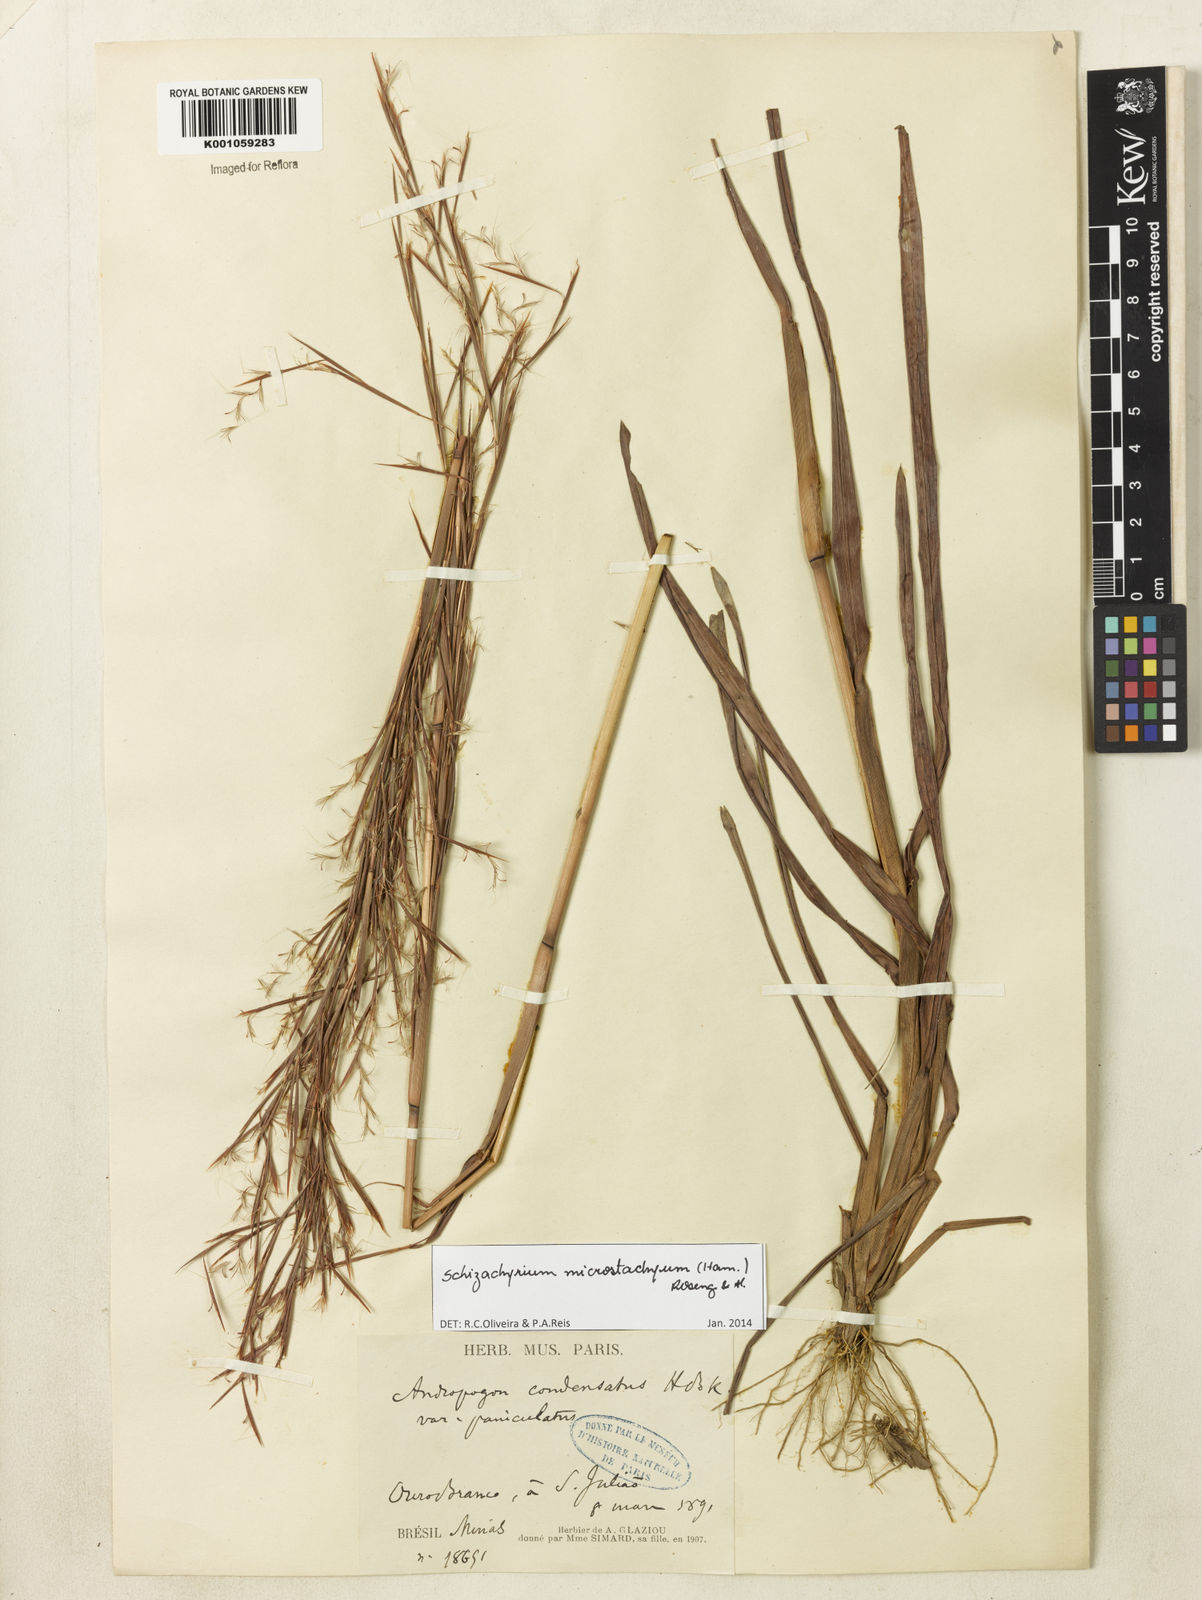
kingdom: Plantae
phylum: Tracheophyta
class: Liliopsida
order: Poales
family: Poaceae
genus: Schizachyrium
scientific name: Schizachyrium
